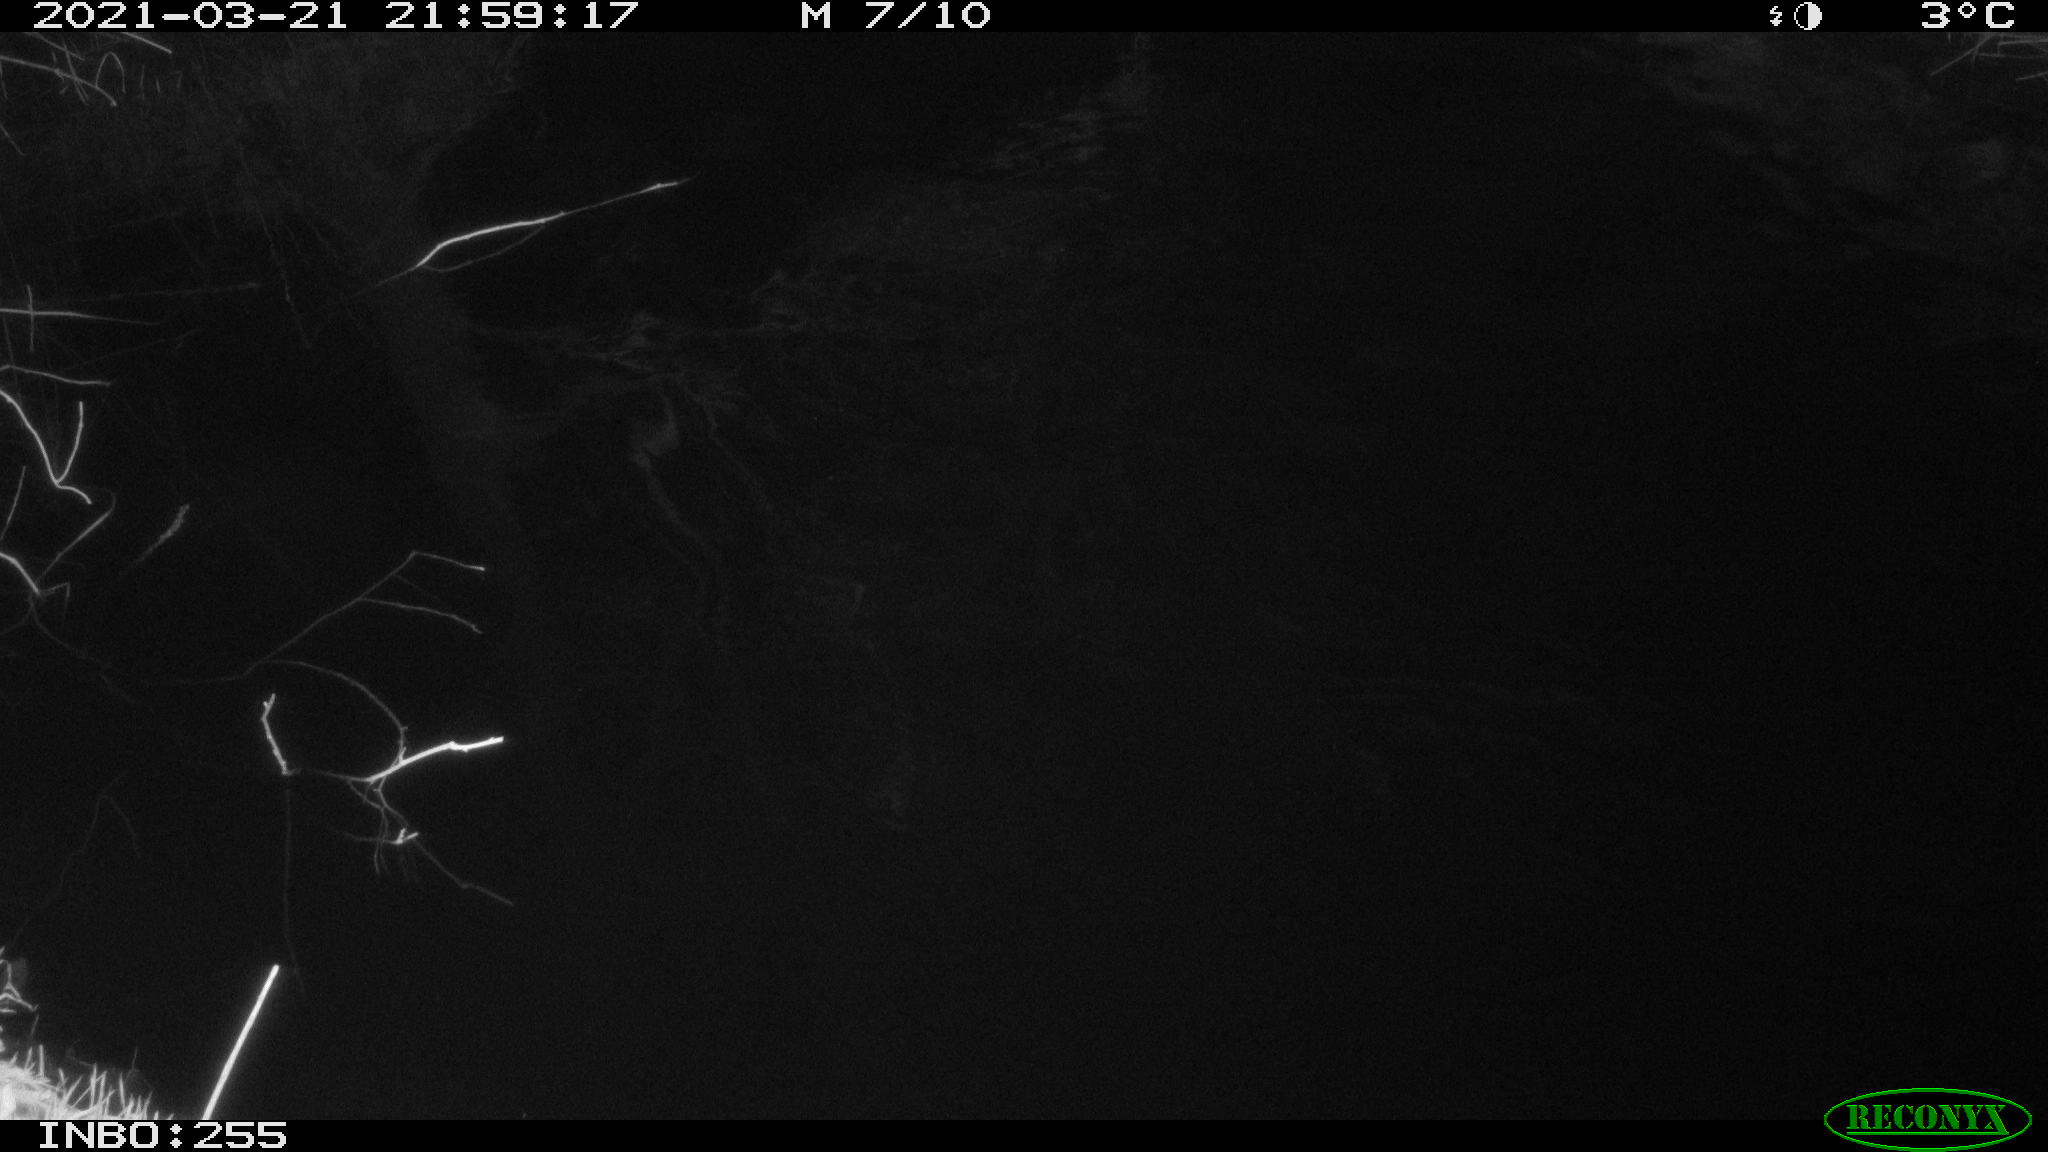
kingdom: Animalia
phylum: Chordata
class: Aves
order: Anseriformes
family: Anatidae
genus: Anas
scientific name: Anas platyrhynchos
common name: Mallard
